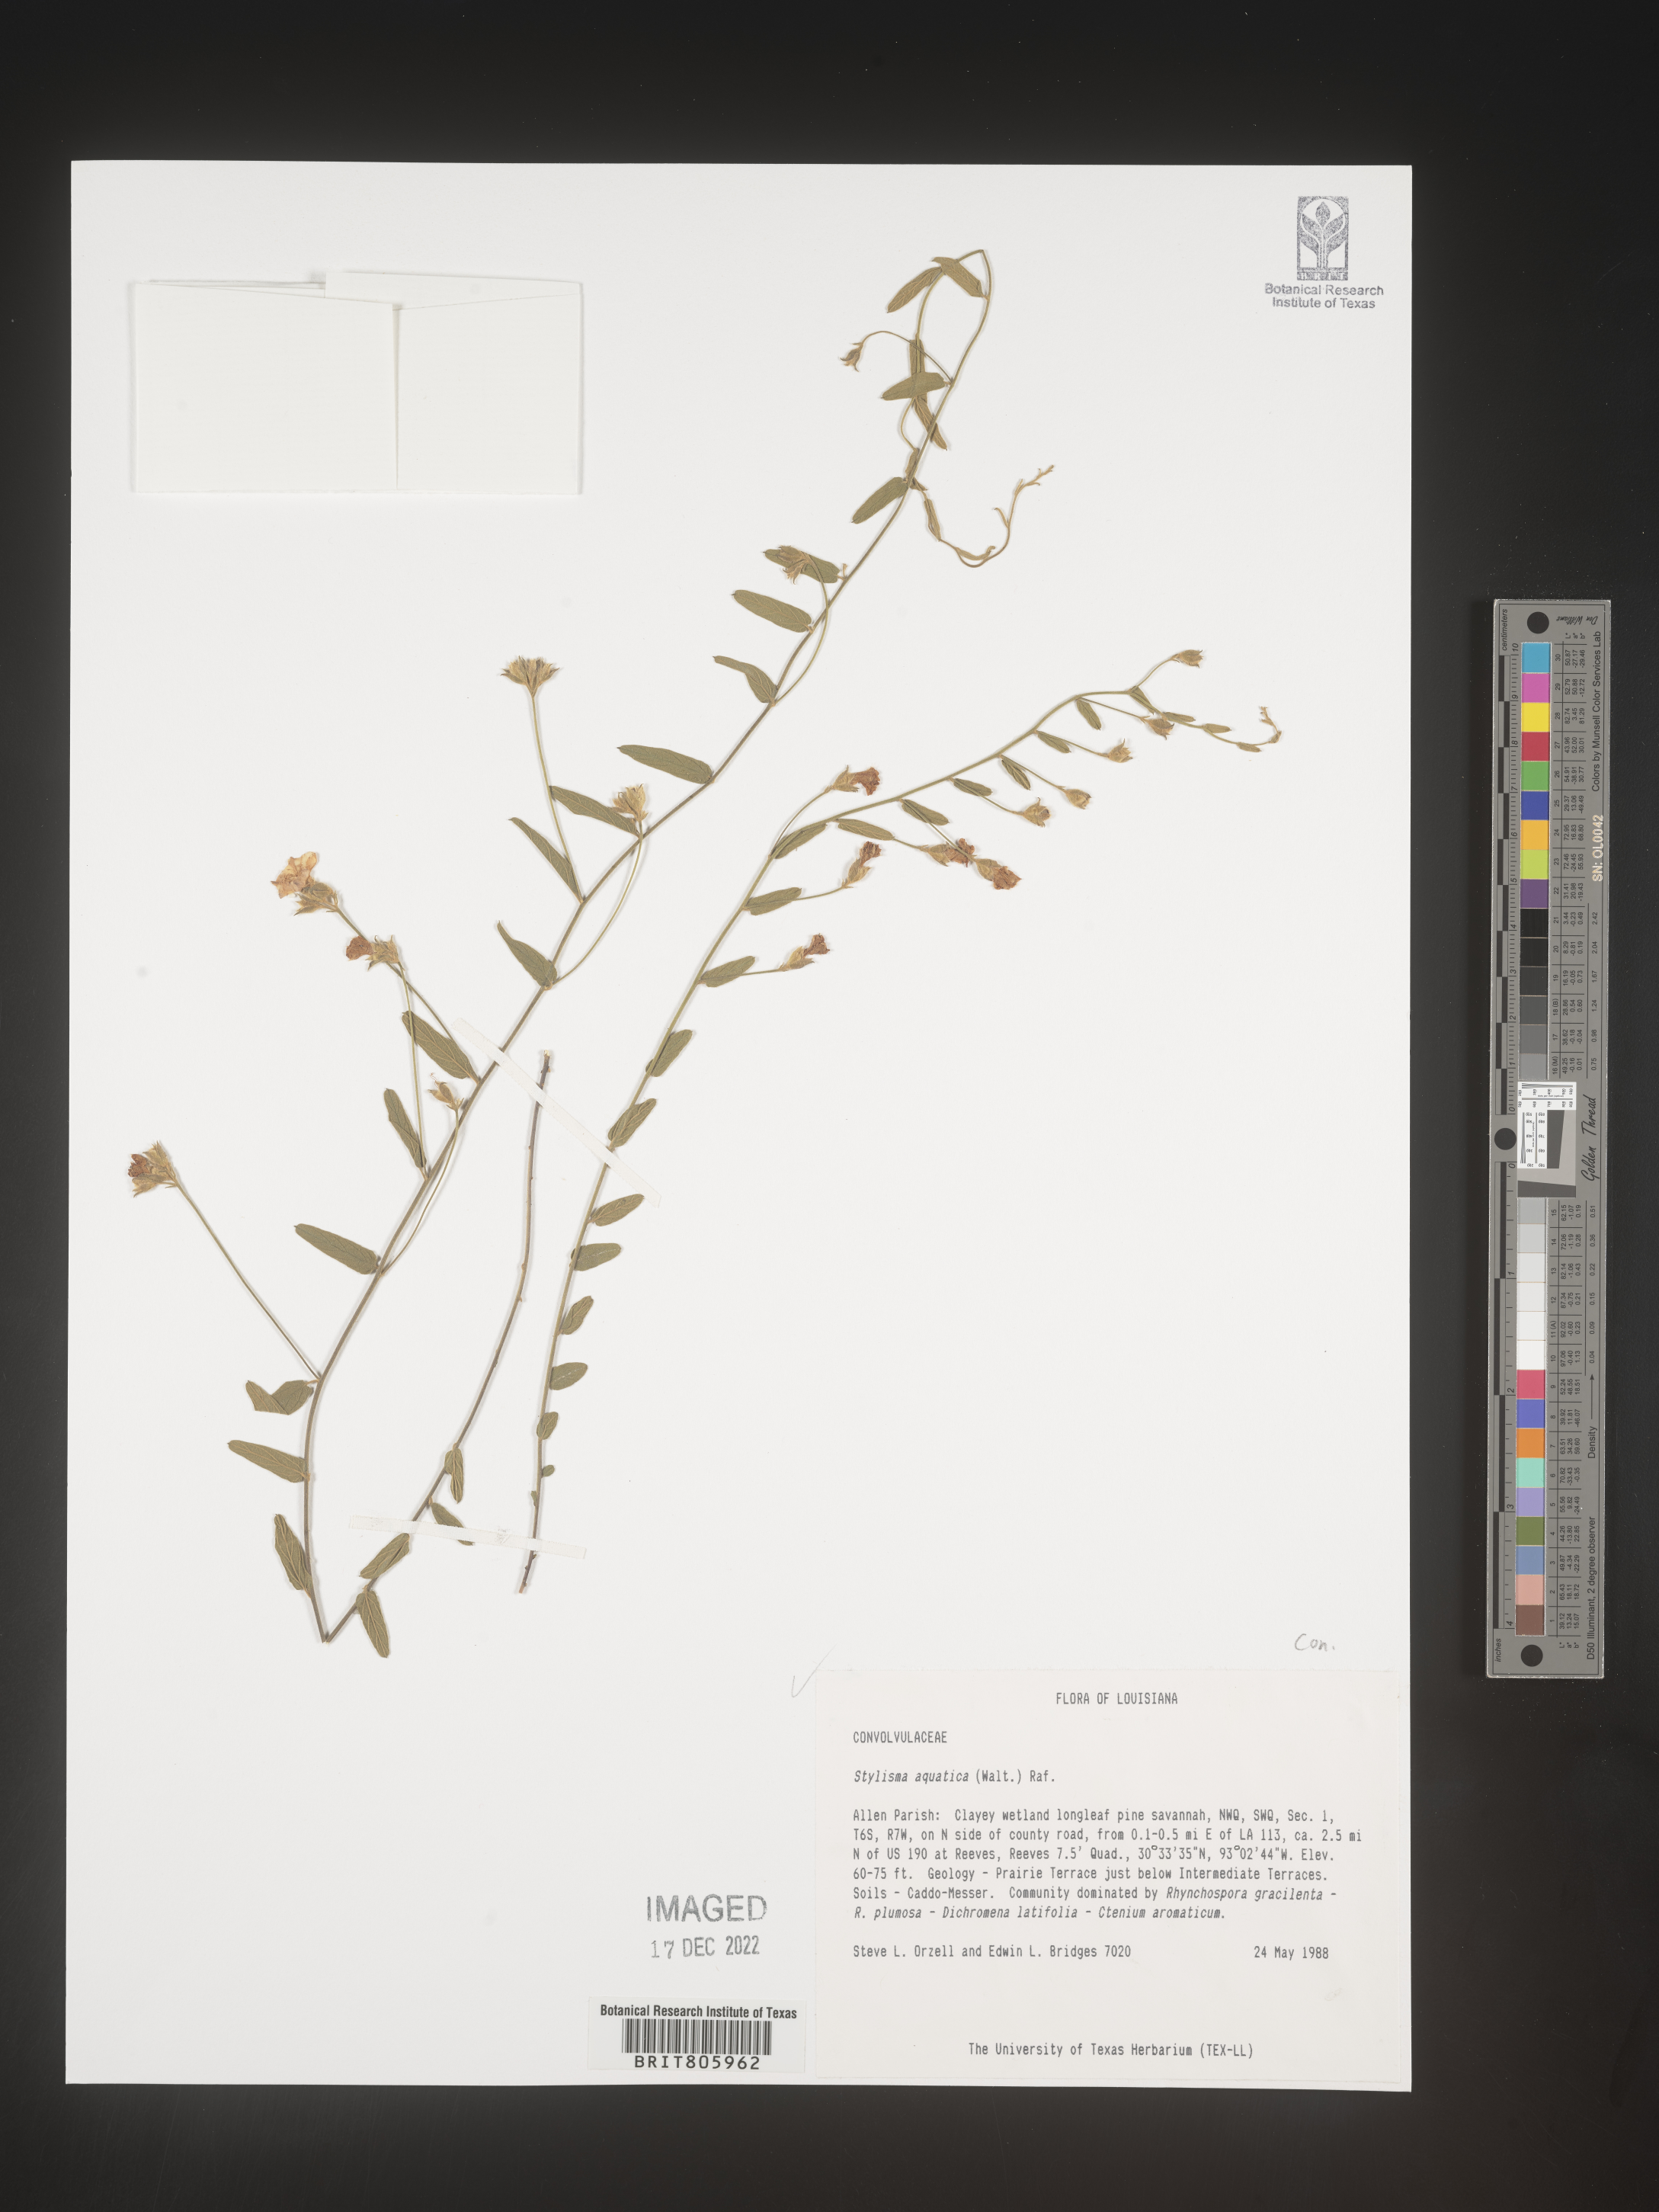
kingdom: Plantae
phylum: Tracheophyta
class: Magnoliopsida
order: Solanales
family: Convolvulaceae
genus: Stylisma
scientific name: Stylisma
